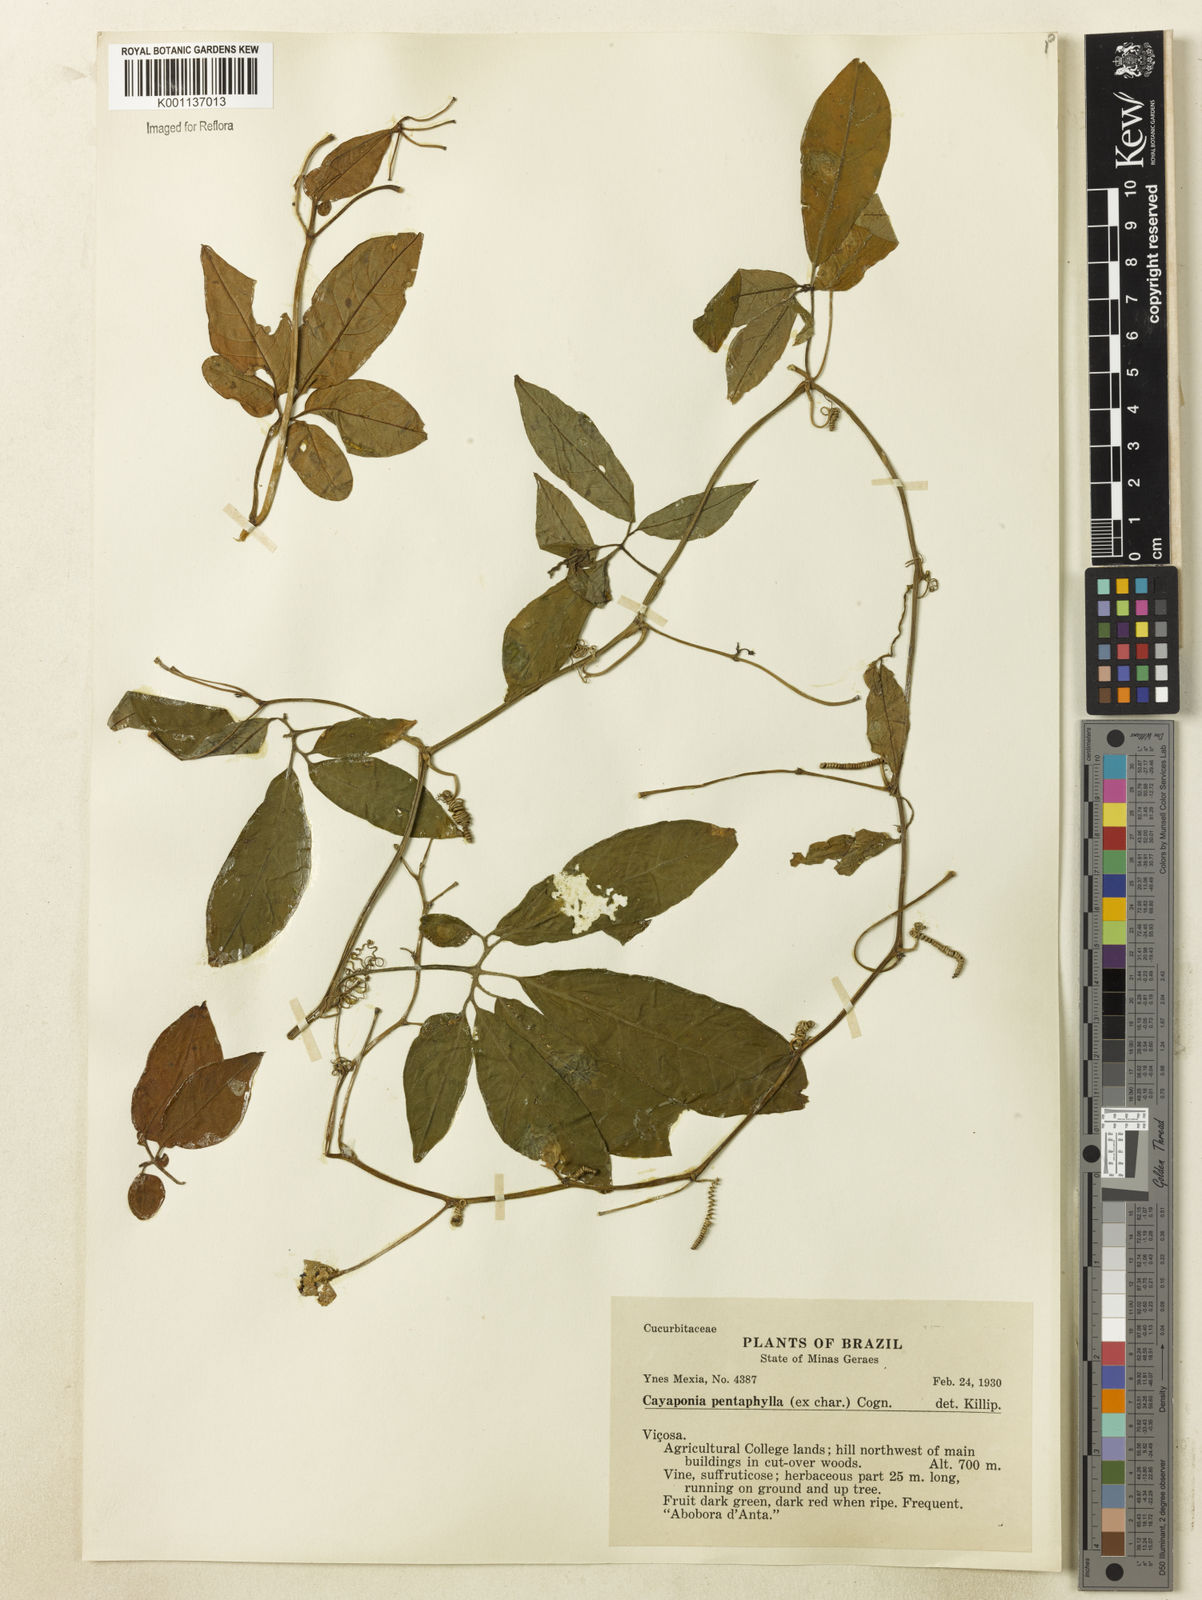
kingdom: Plantae
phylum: Tracheophyta
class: Magnoliopsida
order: Cucurbitales
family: Cucurbitaceae
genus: Cayaponia
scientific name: Cayaponia trifoliolata
